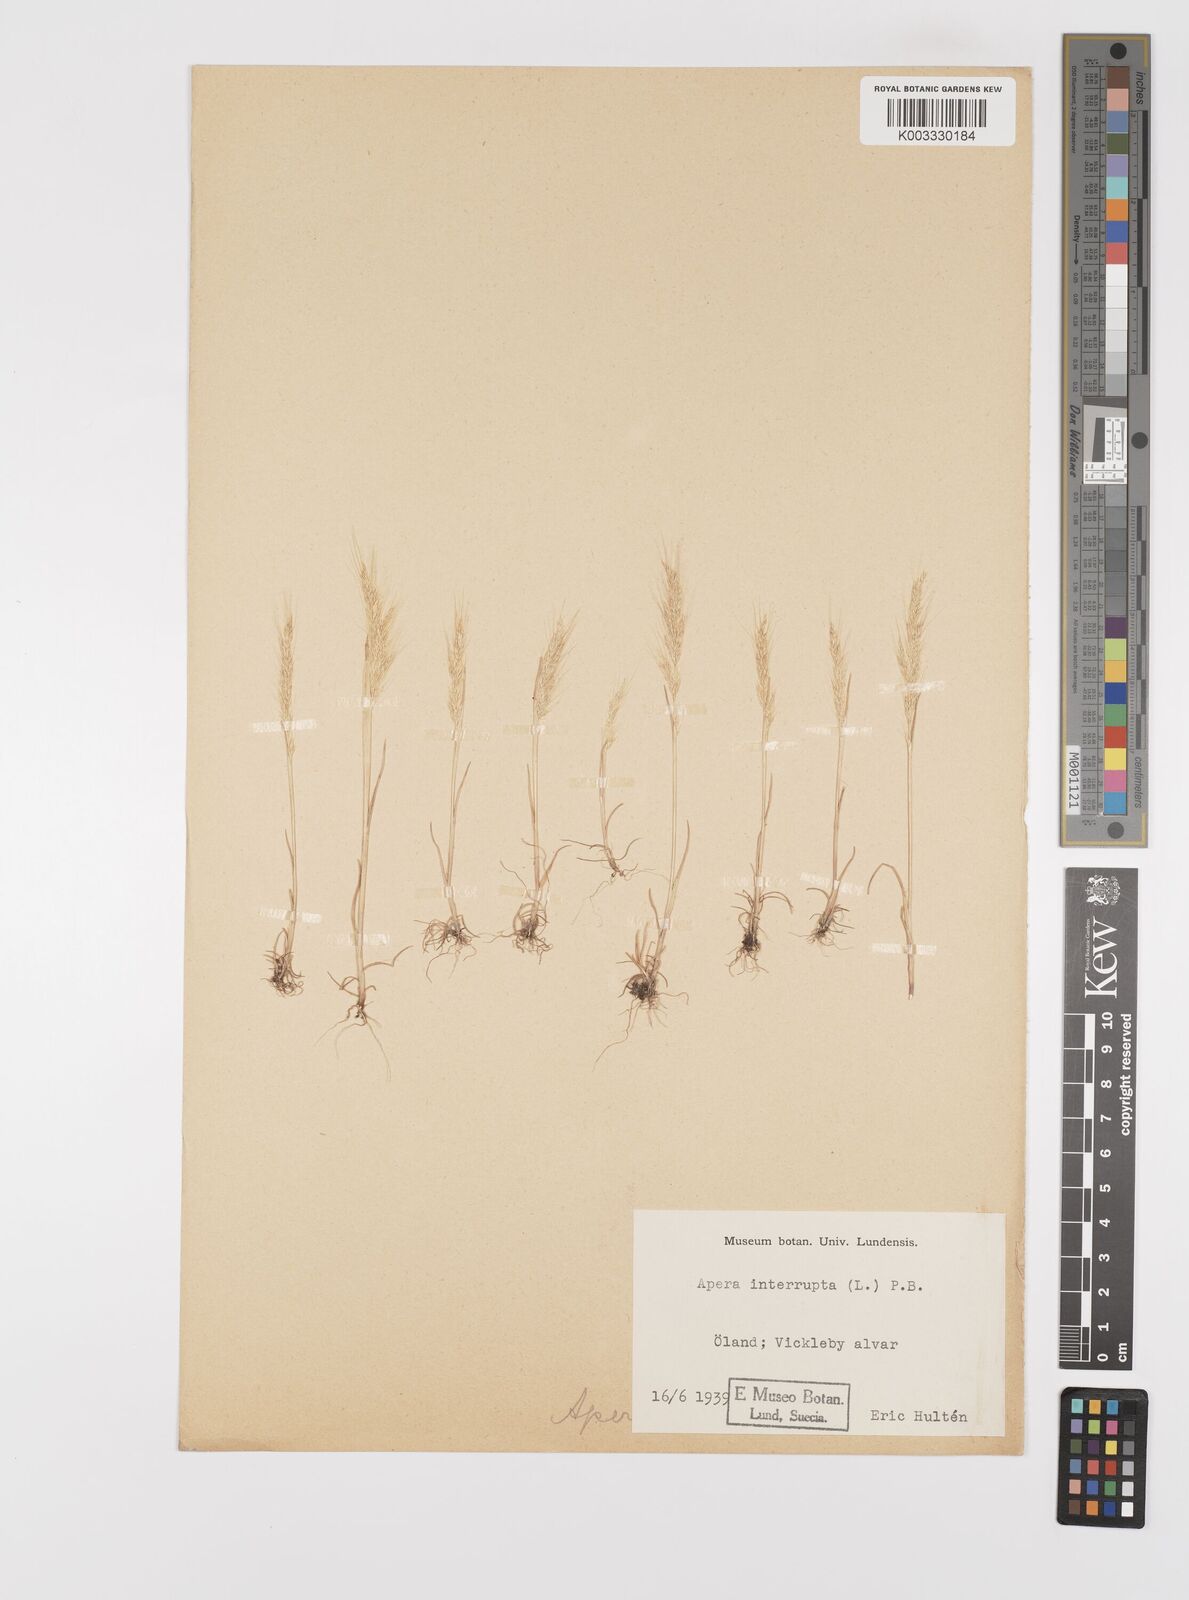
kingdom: Plantae
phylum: Tracheophyta
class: Liliopsida
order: Poales
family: Poaceae
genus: Apera
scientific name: Apera interrupta
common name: Dense silky-bent
